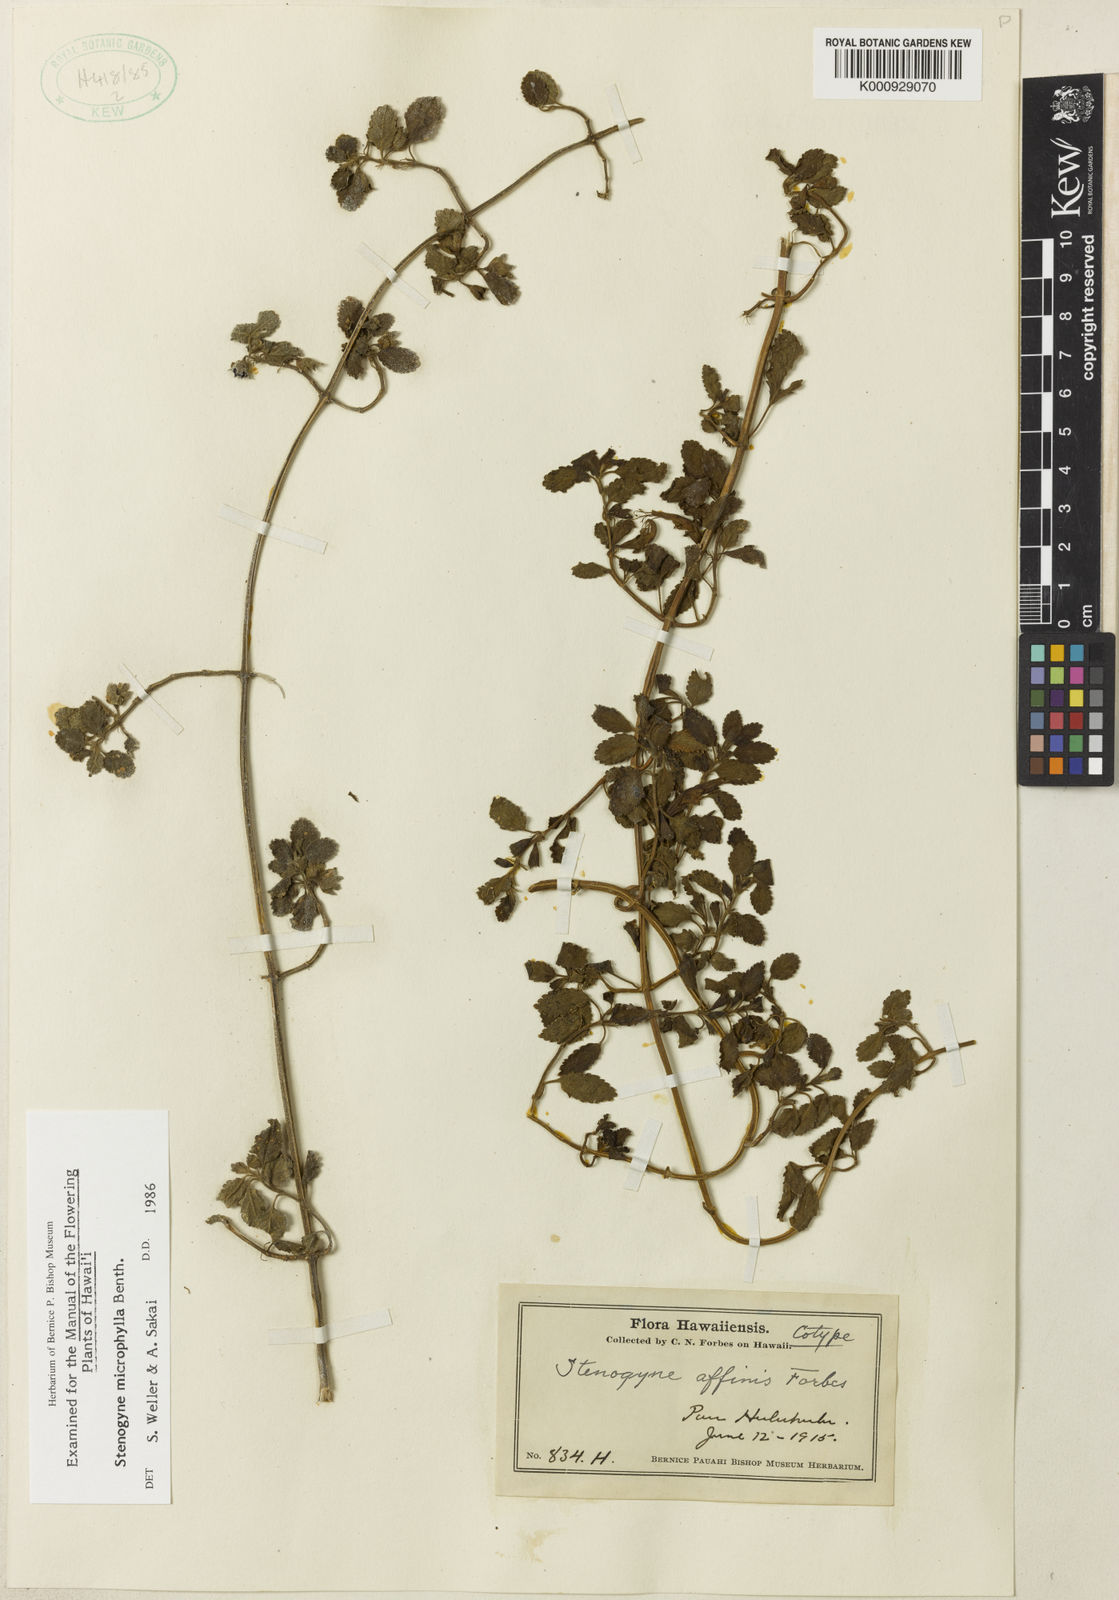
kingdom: Plantae
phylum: Tracheophyta
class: Magnoliopsida
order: Lamiales
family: Lamiaceae
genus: Stenogyne
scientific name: Stenogyne microphylla
